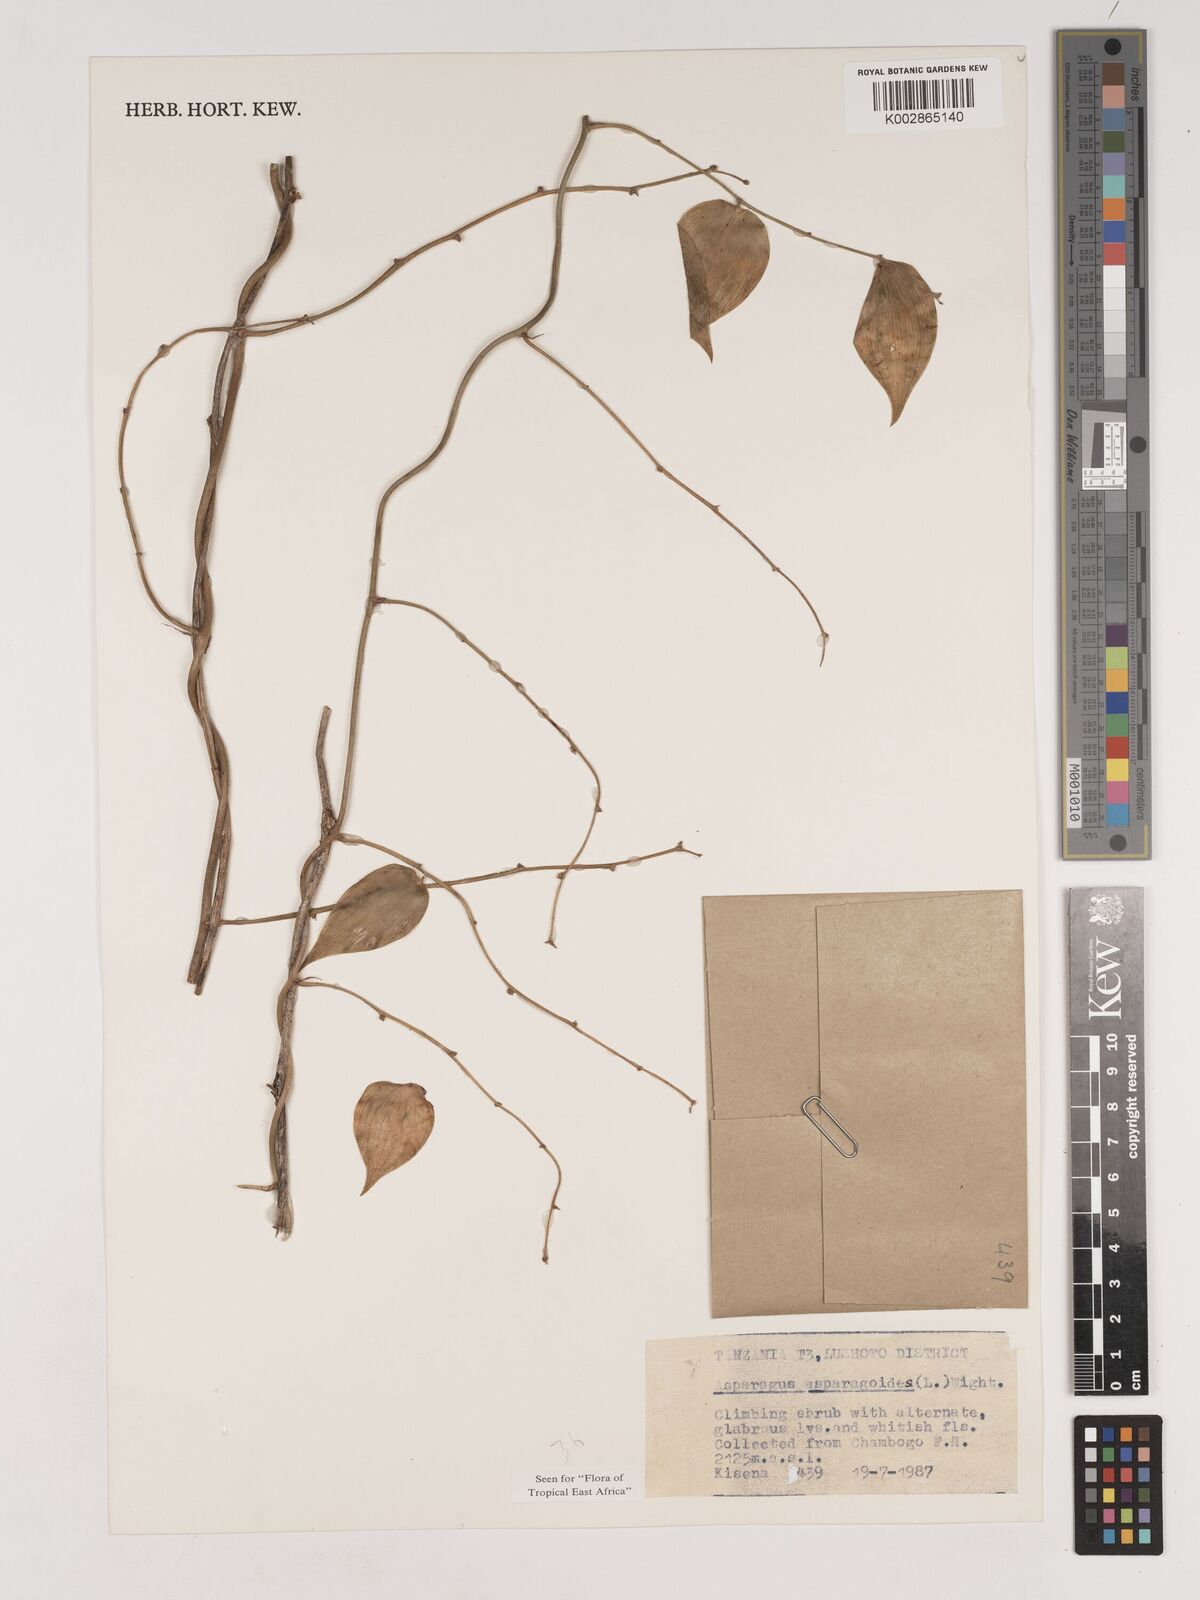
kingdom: Plantae
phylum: Tracheophyta
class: Liliopsida
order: Asparagales
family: Asparagaceae
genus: Asparagus
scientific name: Asparagus asparagoides
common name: African asparagus fern
